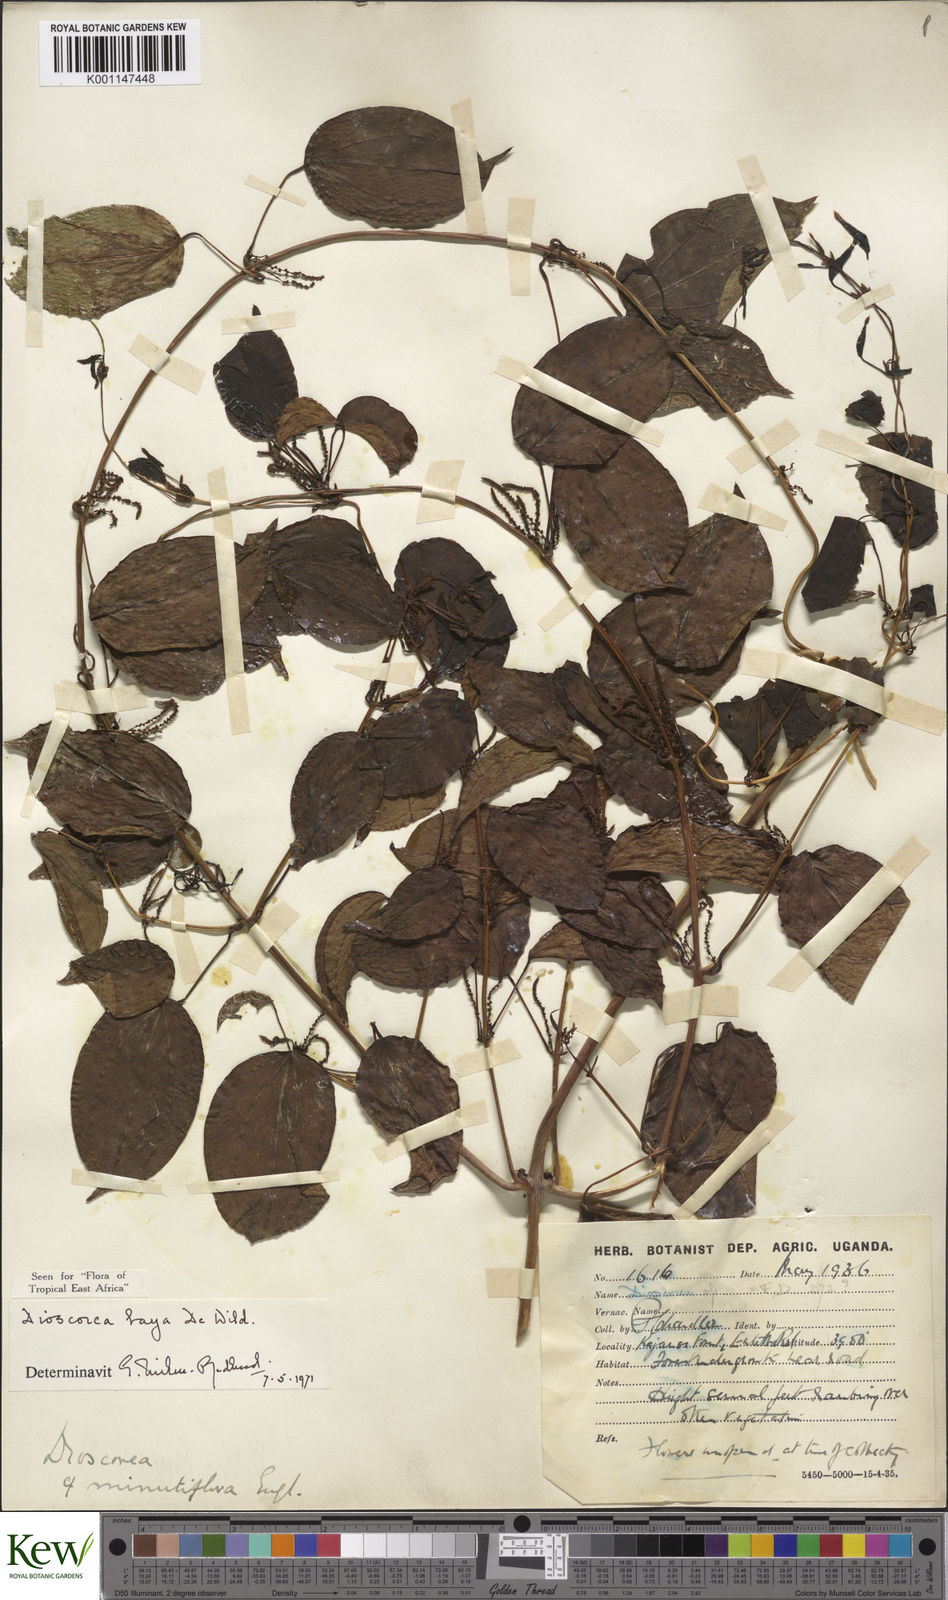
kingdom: Plantae
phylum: Tracheophyta
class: Liliopsida
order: Dioscoreales
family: Dioscoreaceae
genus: Dioscorea
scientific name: Dioscorea baya
